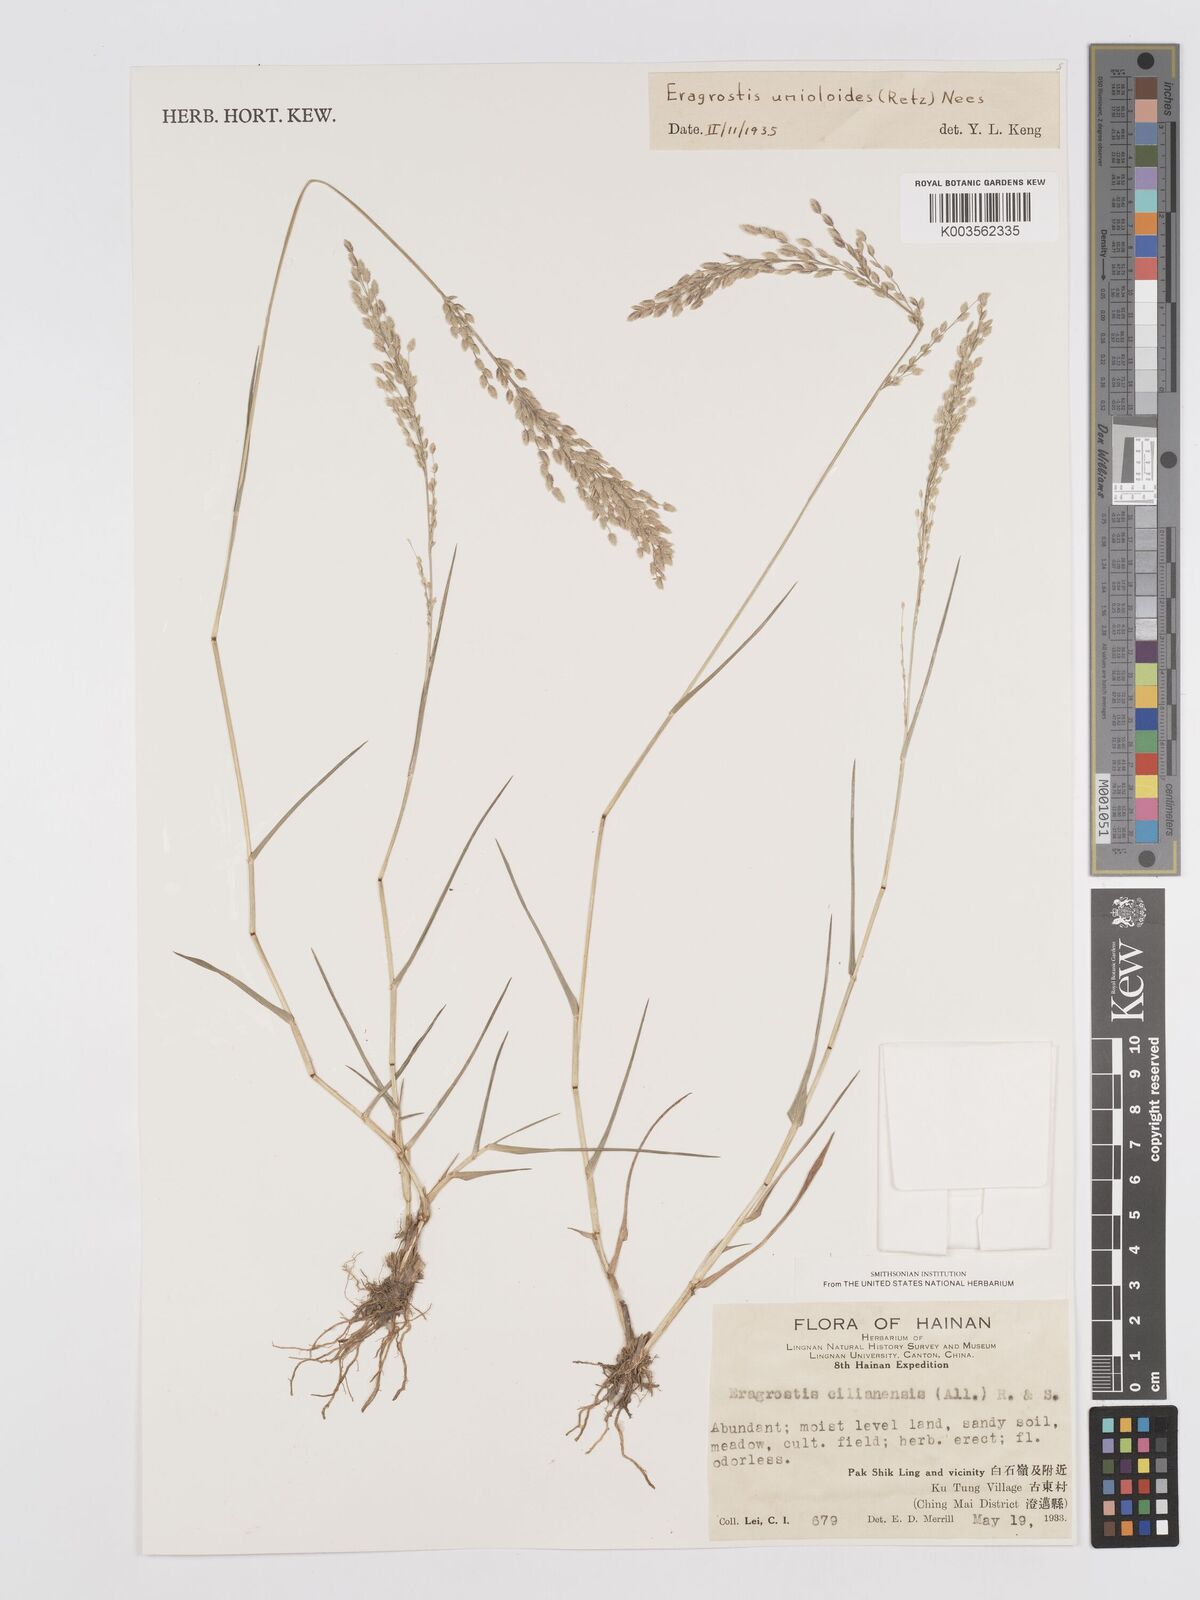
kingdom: Plantae
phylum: Tracheophyta
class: Liliopsida
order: Poales
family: Poaceae
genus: Eragrostis
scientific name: Eragrostis unioloides
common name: Chinese lovegrass
